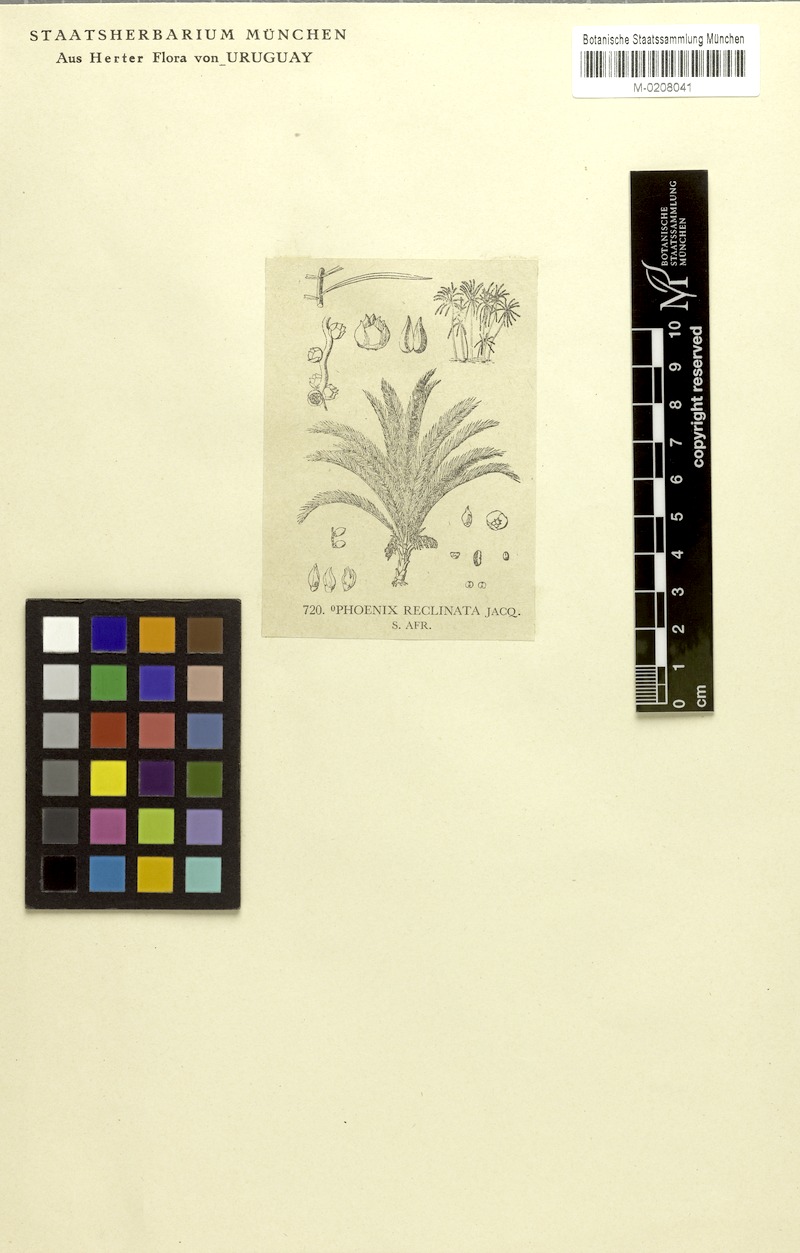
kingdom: Plantae
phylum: Tracheophyta
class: Liliopsida
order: Arecales
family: Arecaceae
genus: Phoenix
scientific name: Phoenix reclinata
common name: Senegal date palm
